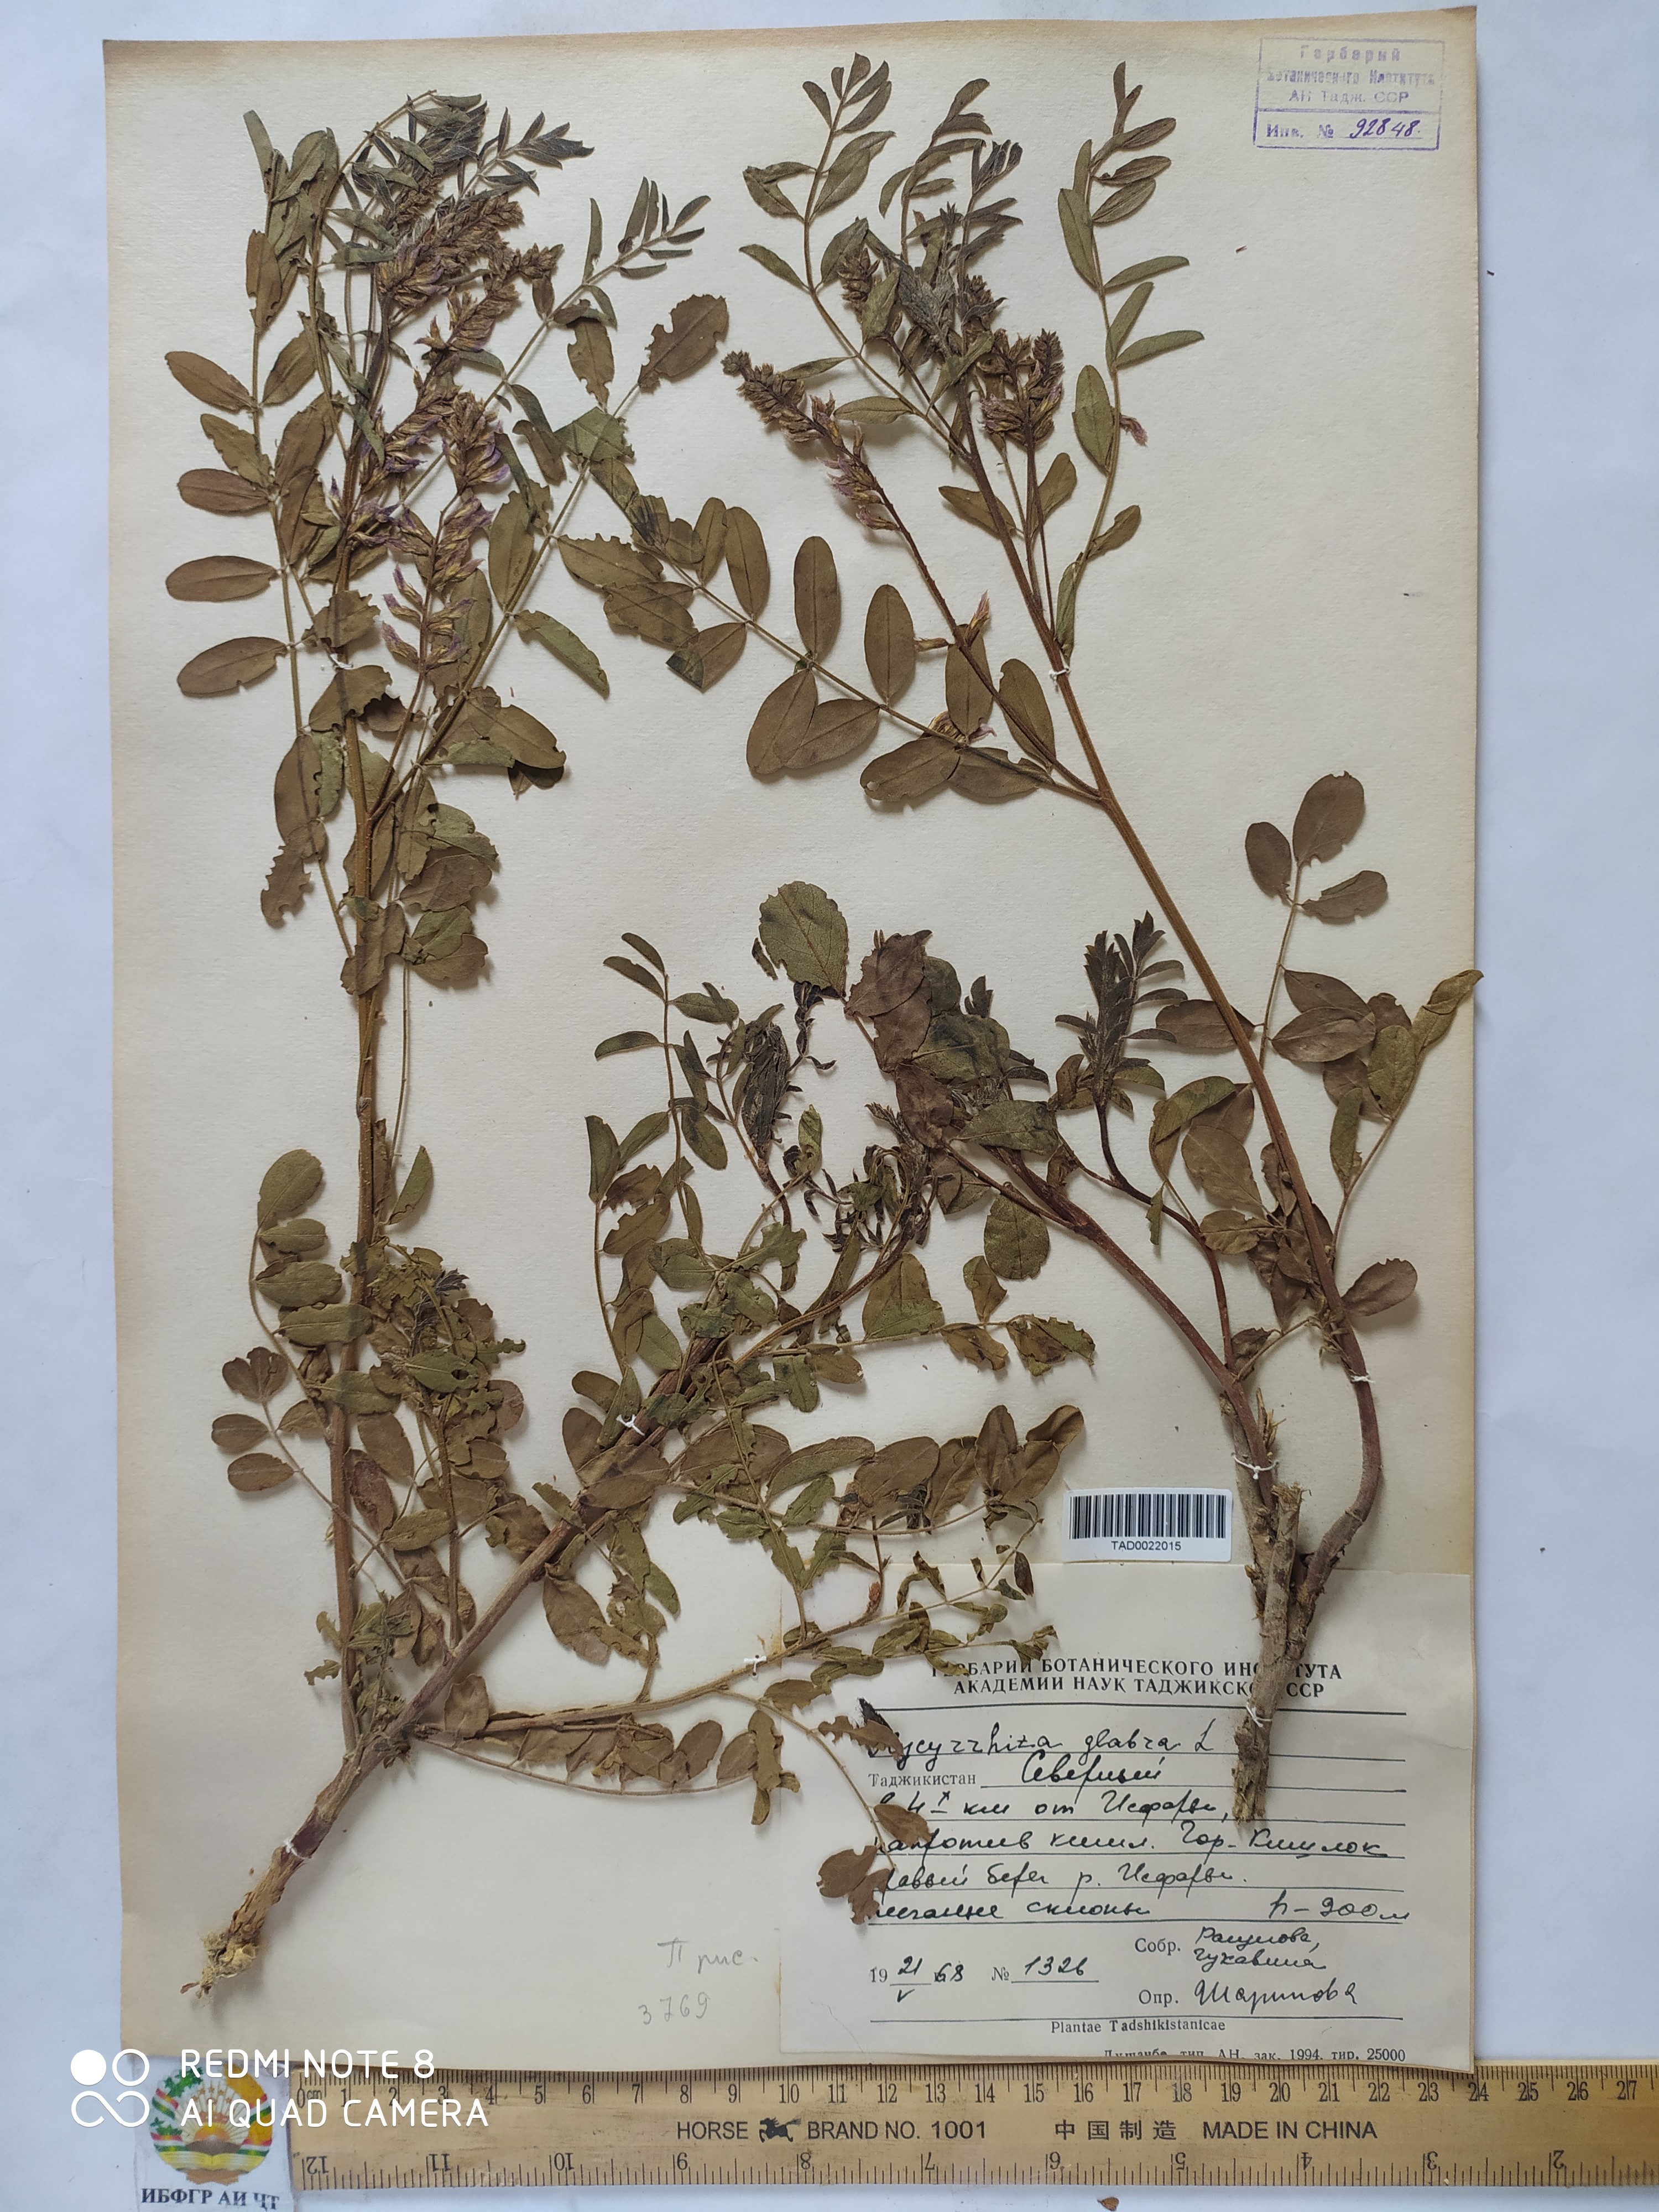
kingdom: Plantae
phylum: Tracheophyta
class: Magnoliopsida
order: Fabales
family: Fabaceae
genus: Glycyrrhiza
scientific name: Glycyrrhiza glabra
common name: Liquorice
